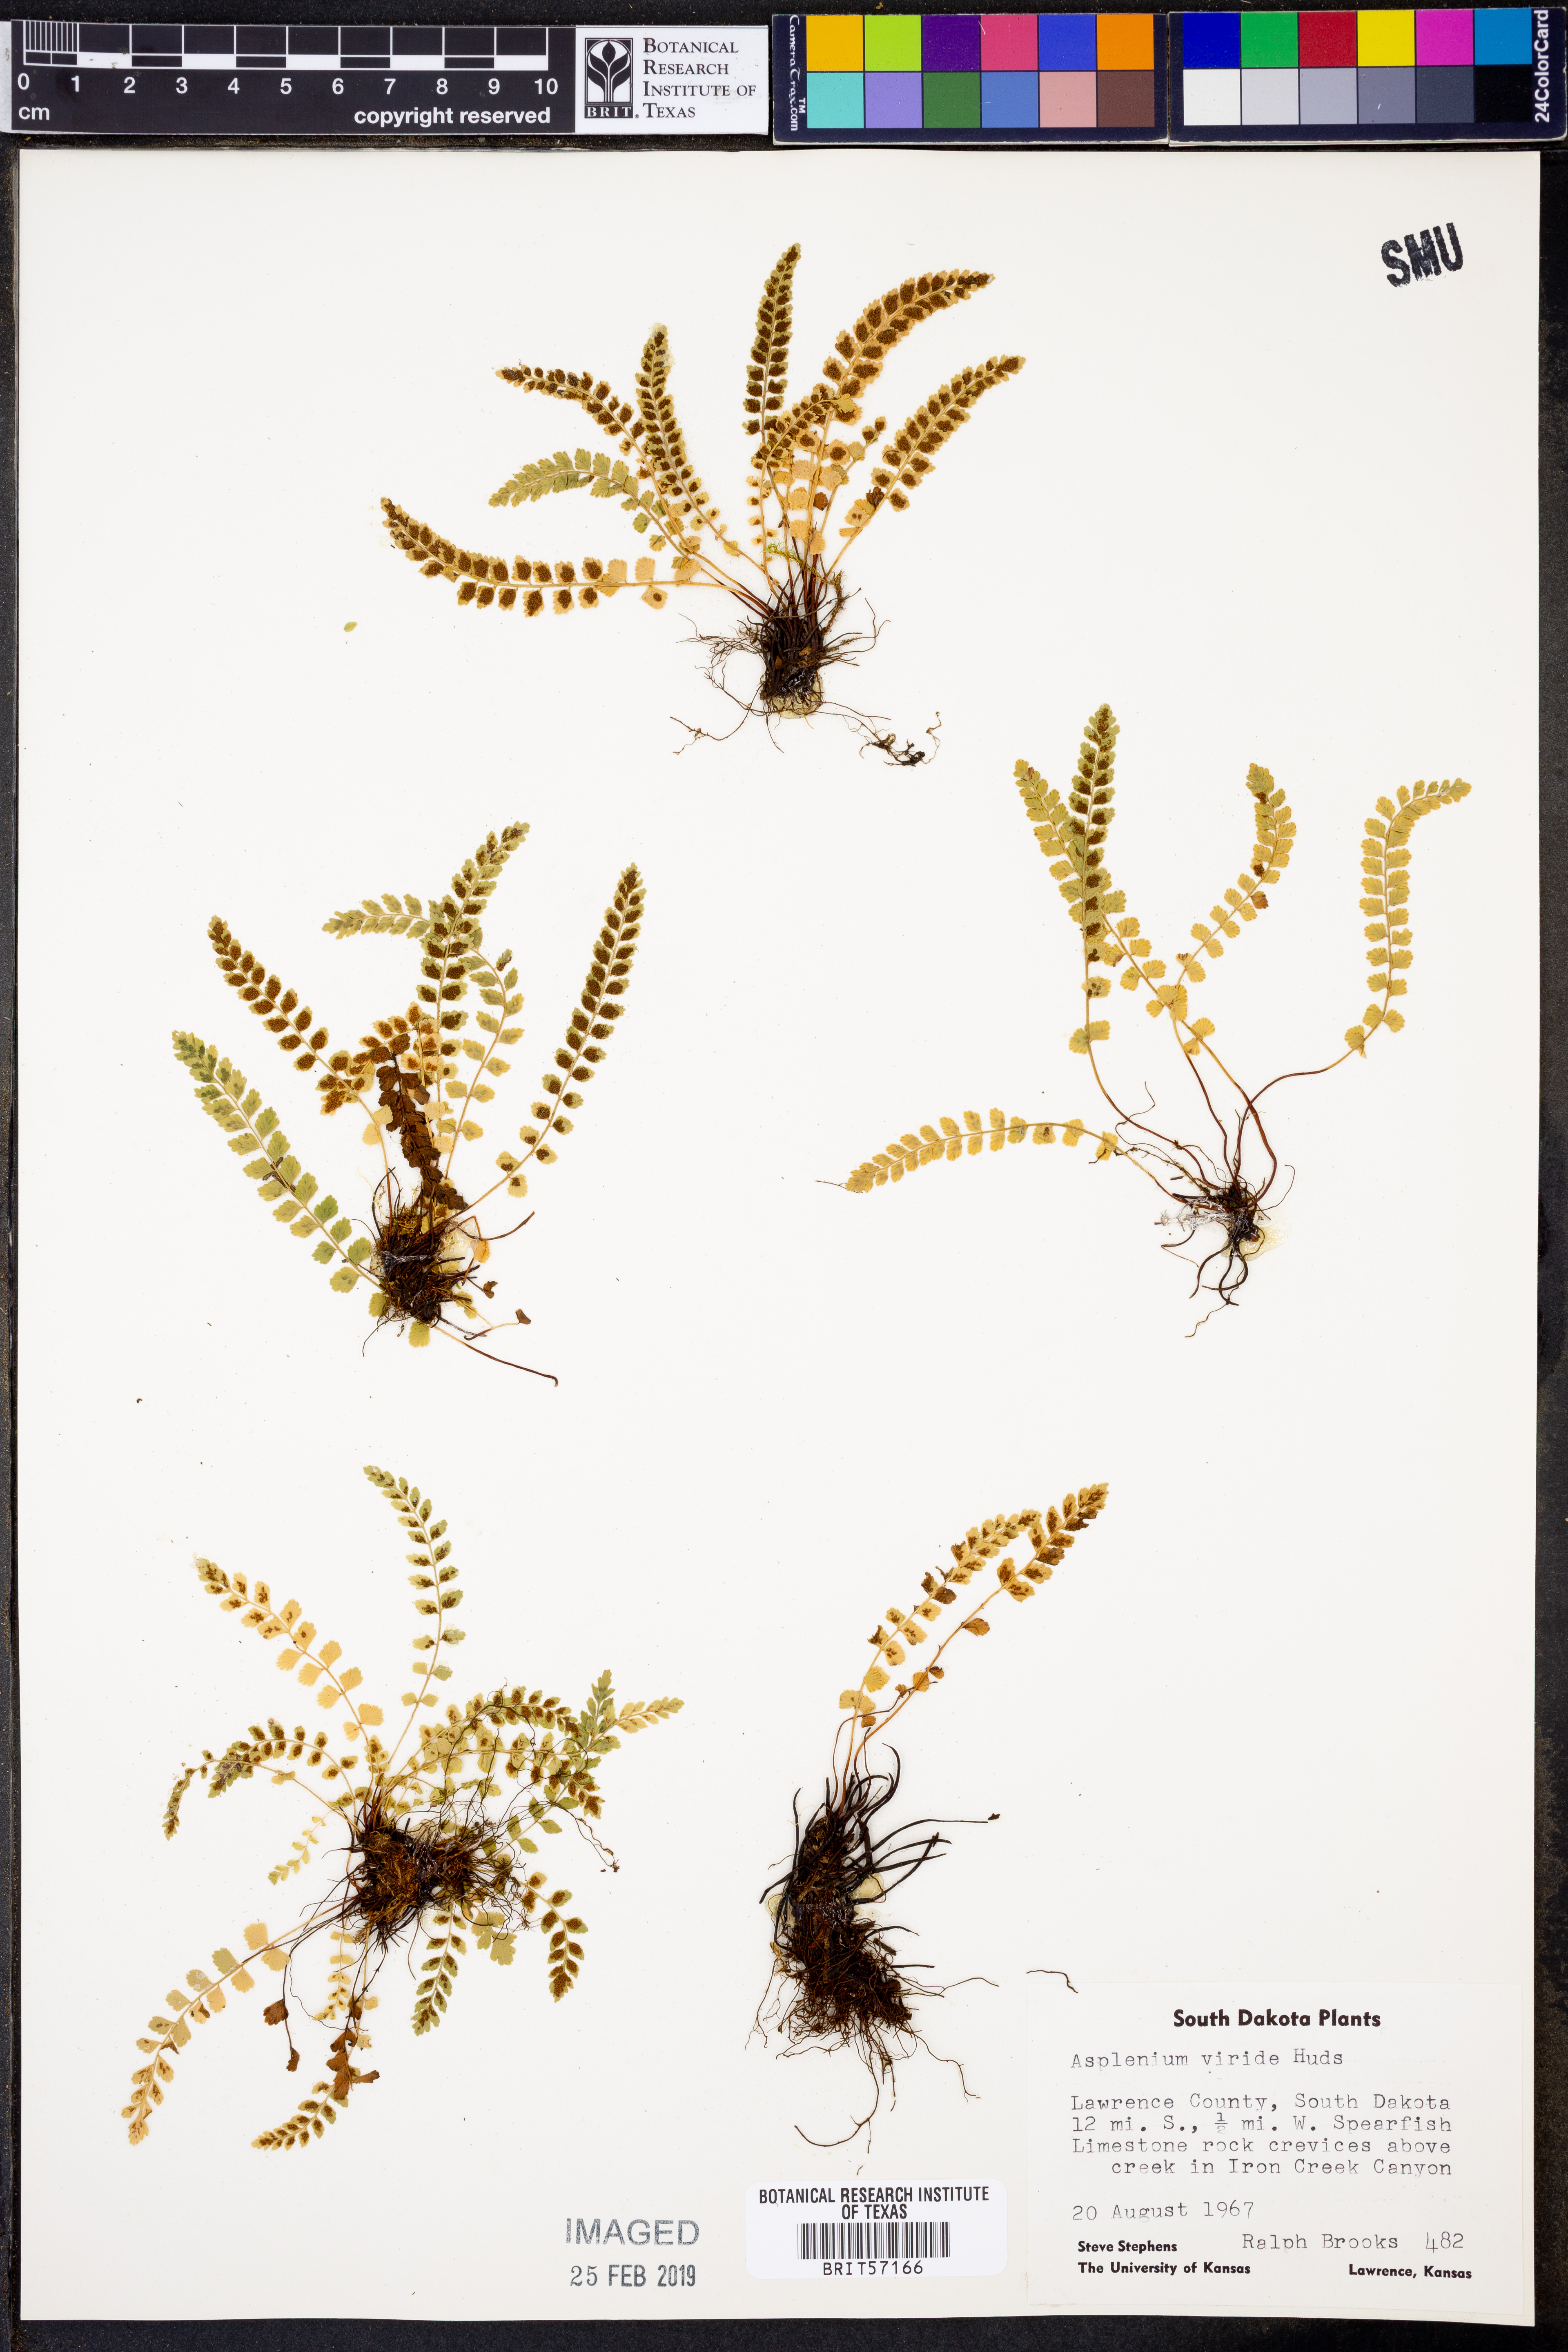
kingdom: Plantae
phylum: Tracheophyta
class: Polypodiopsida
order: Polypodiales
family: Aspleniaceae
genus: Asplenium
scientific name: Asplenium viride
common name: Green spleenwort
